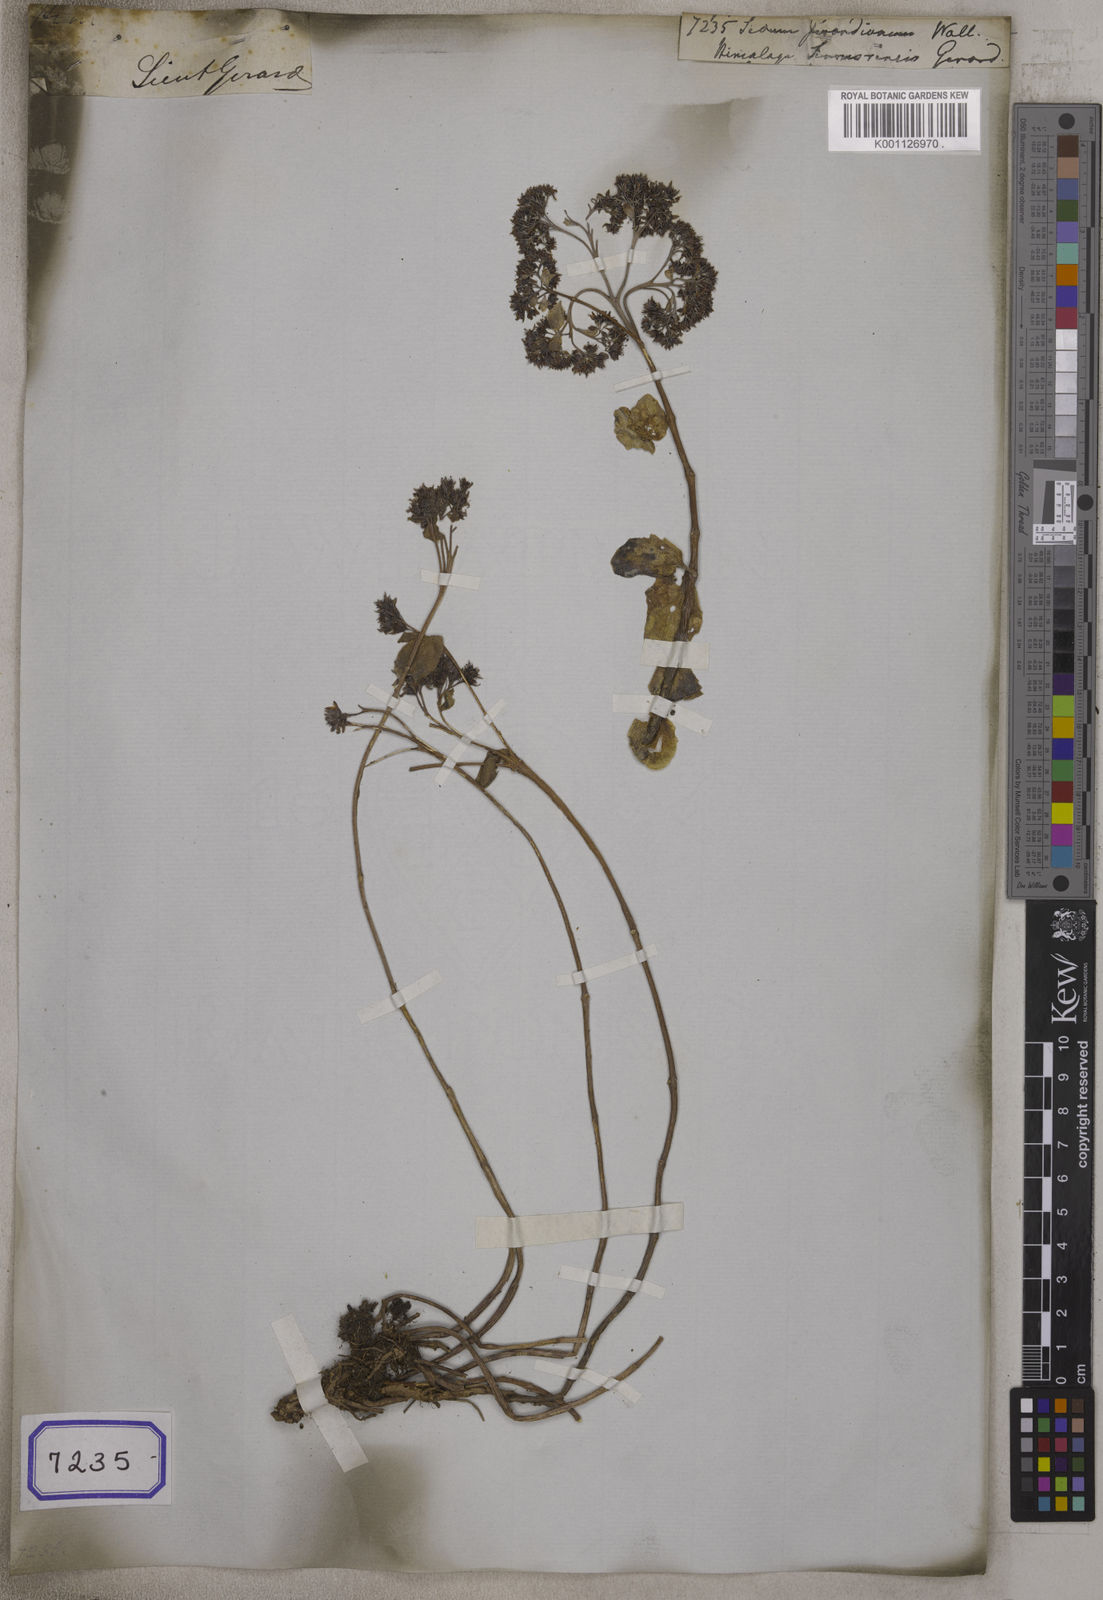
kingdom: Plantae
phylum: Tracheophyta
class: Magnoliopsida
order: Saxifragales
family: Crassulaceae
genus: Sedum
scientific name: Sedum
